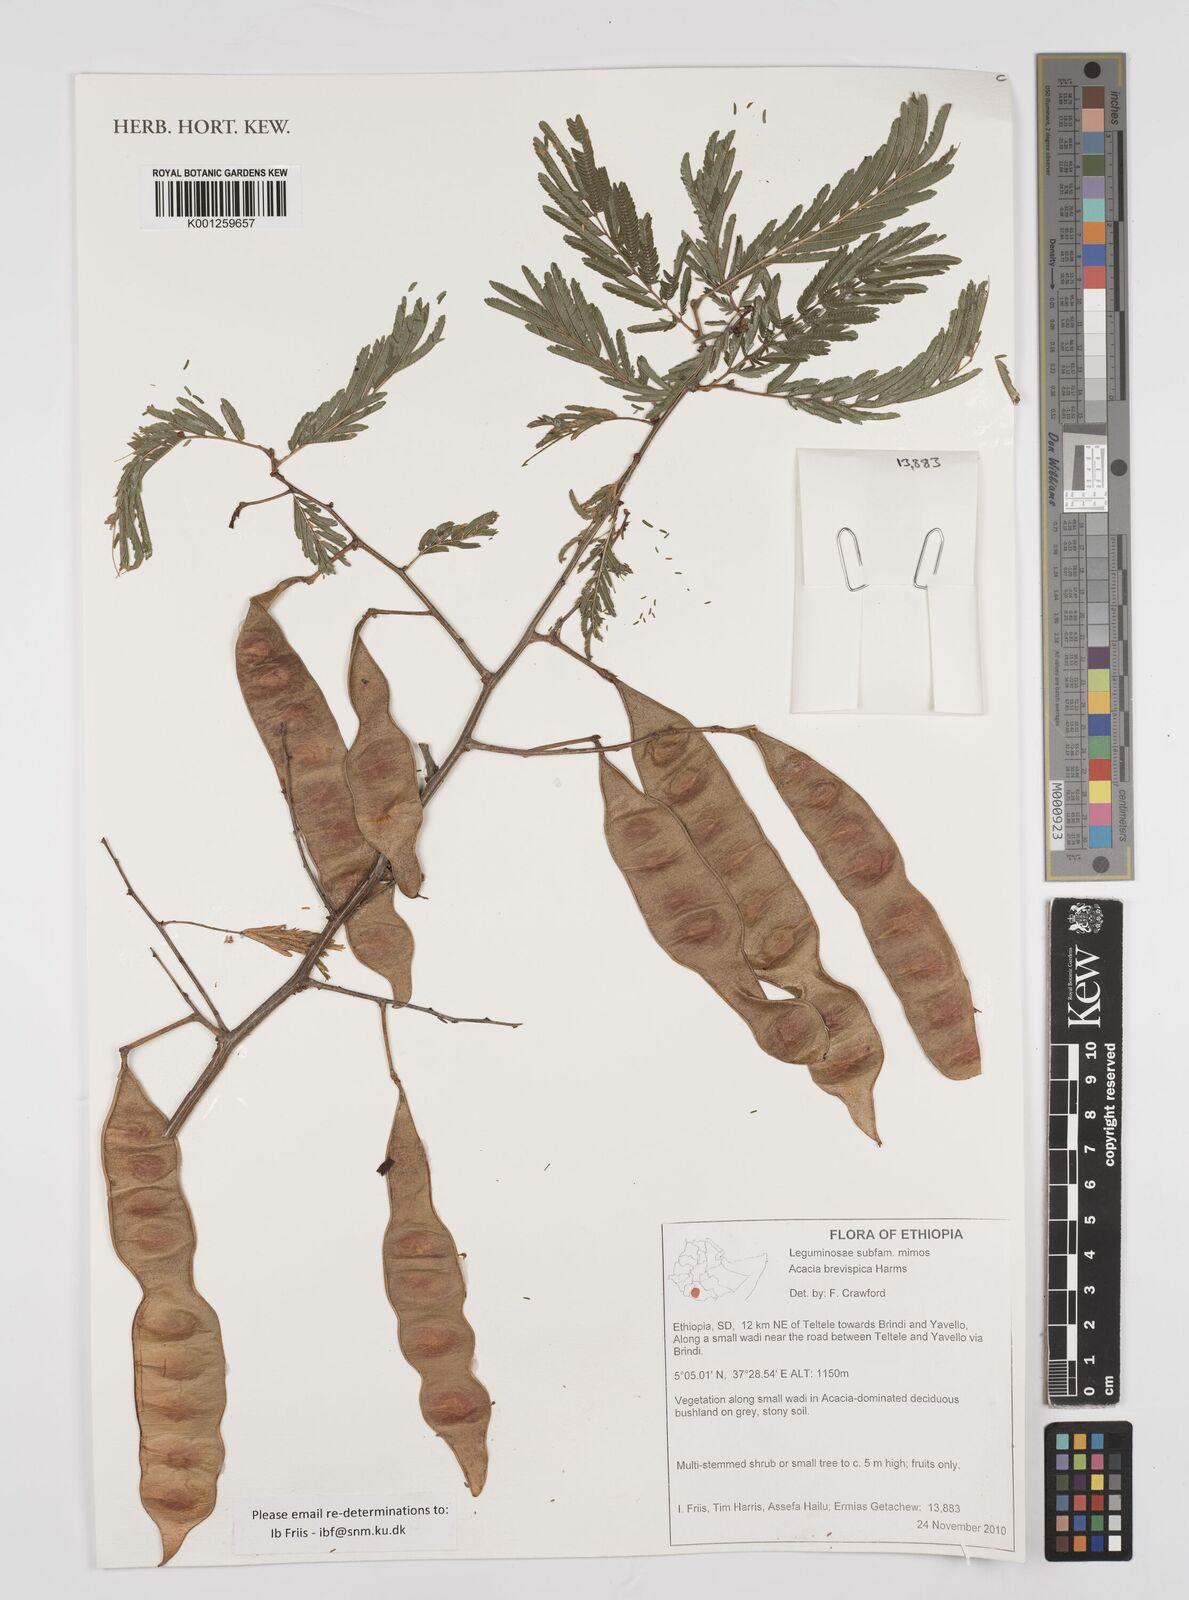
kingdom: Plantae
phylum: Tracheophyta
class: Magnoliopsida
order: Fabales
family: Fabaceae
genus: Senegalia
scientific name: Senegalia brevispica
